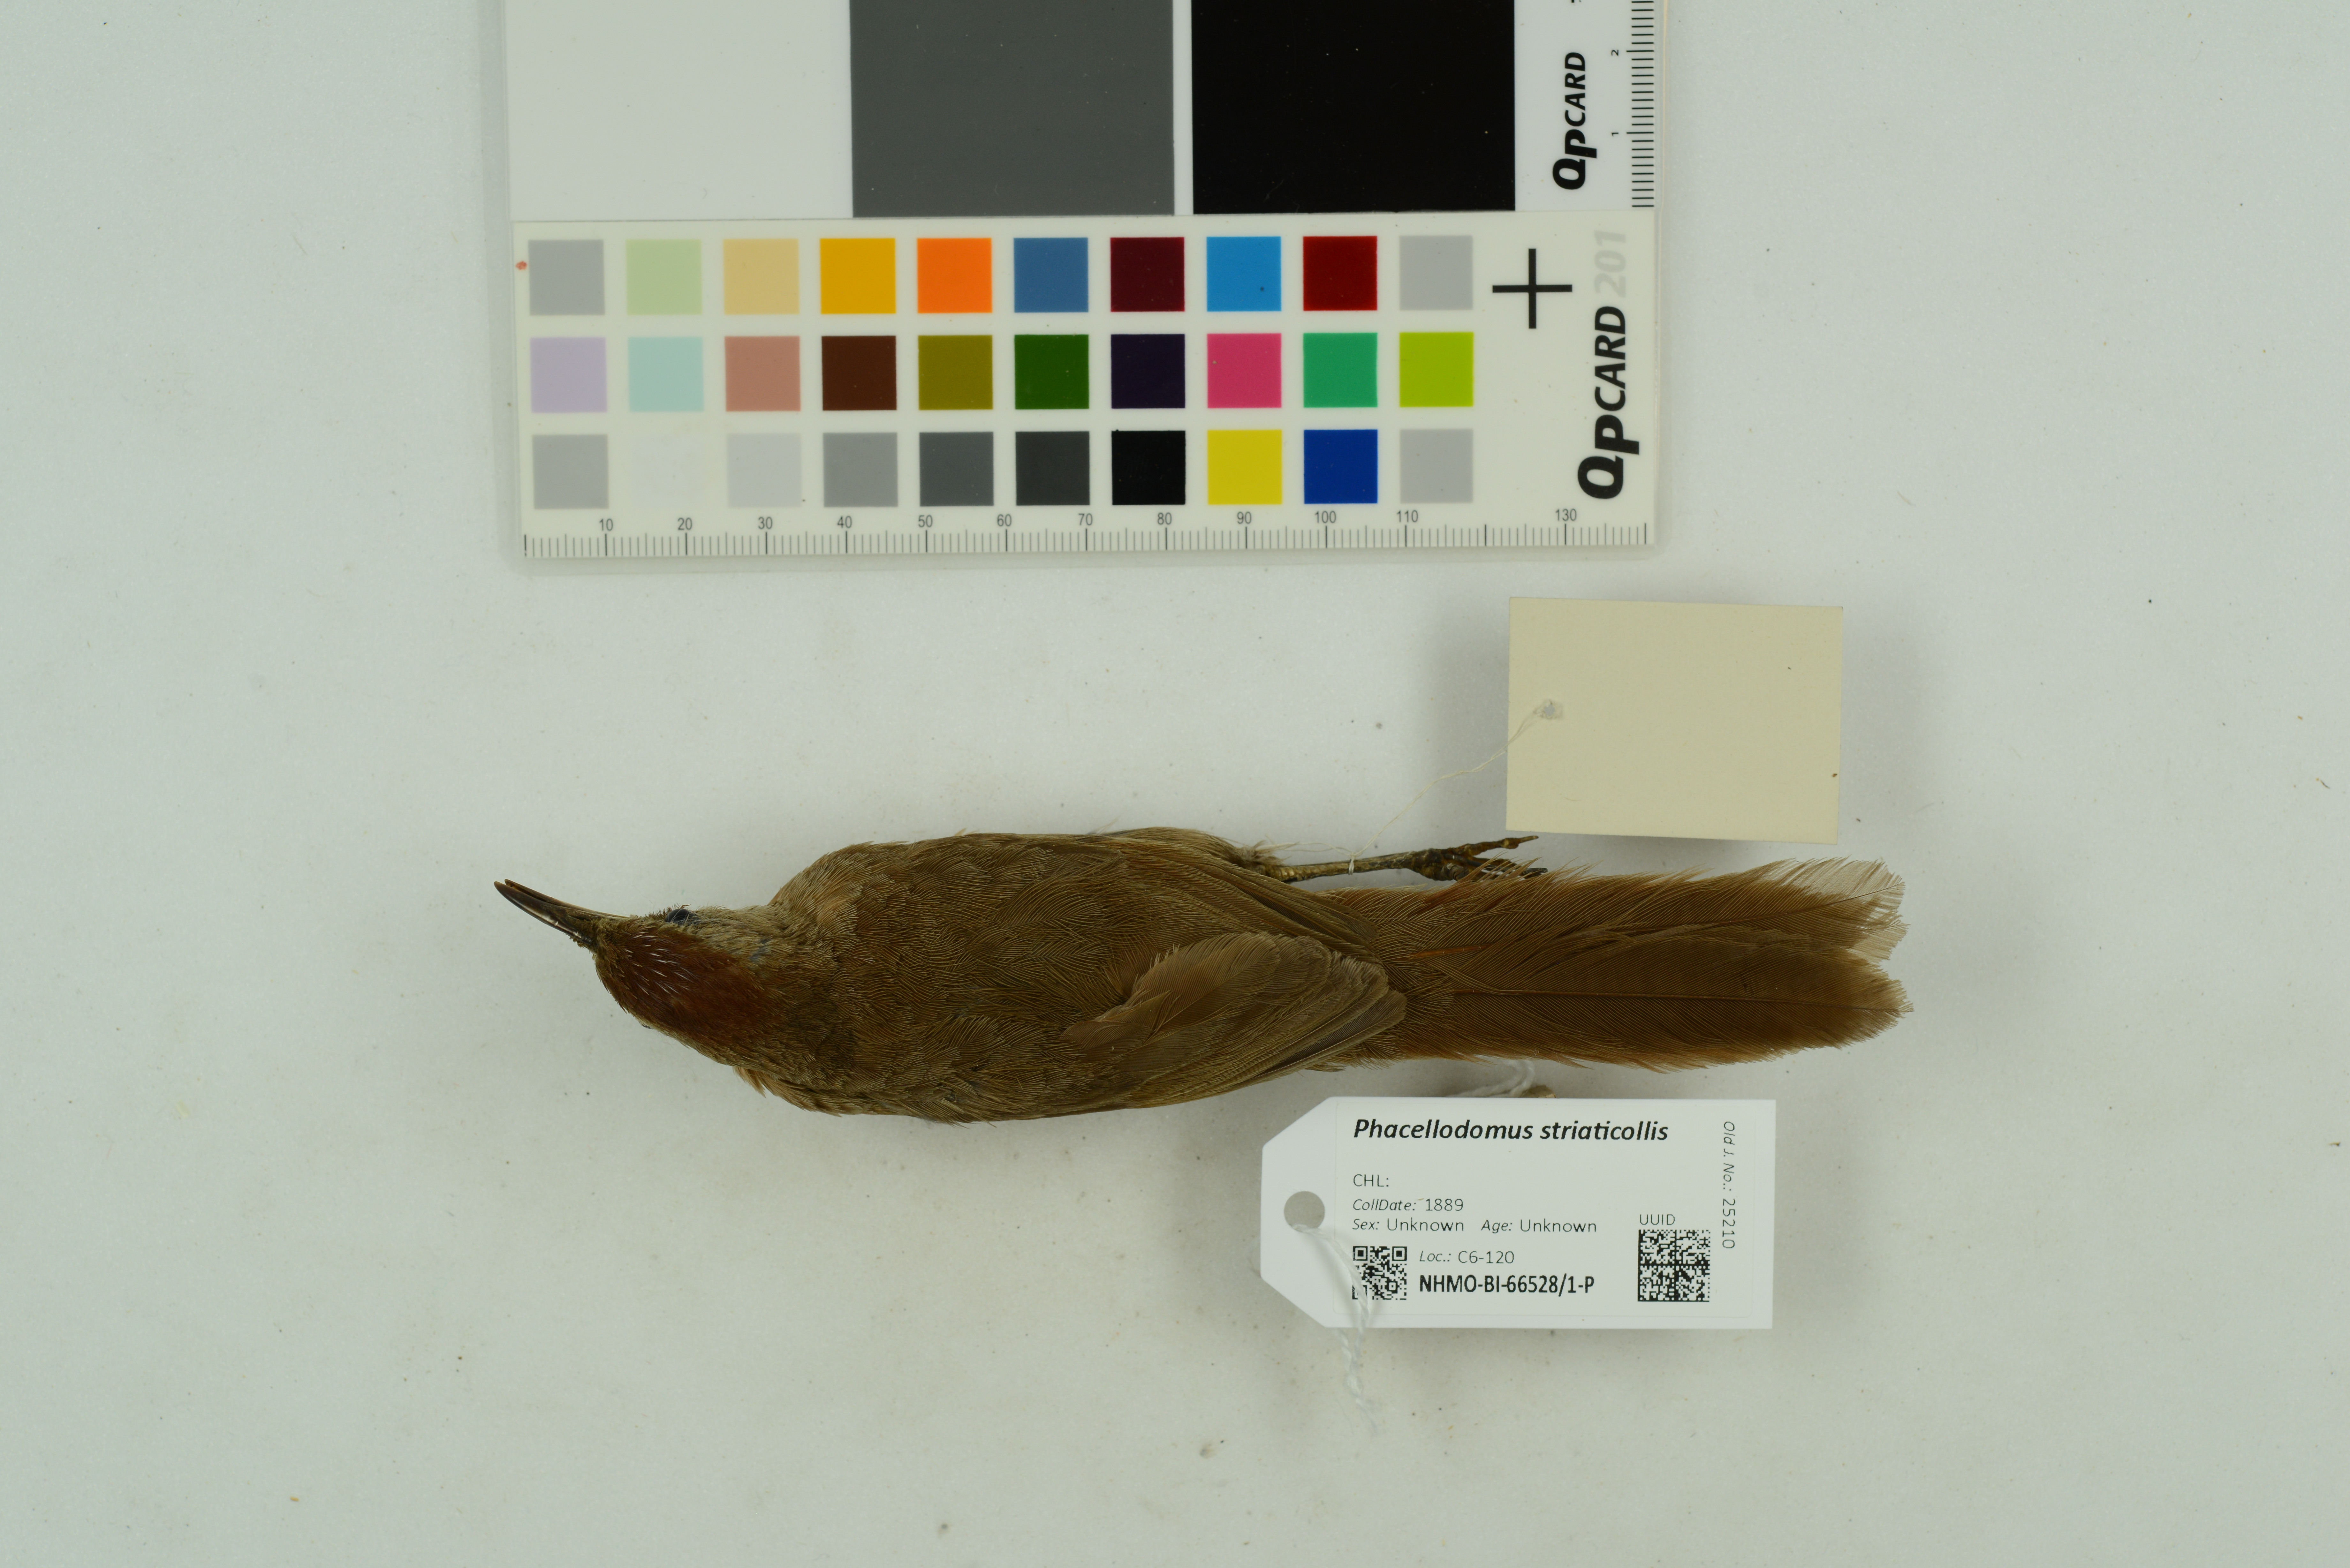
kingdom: Animalia
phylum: Chordata
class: Aves
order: Passeriformes
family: Furnariidae
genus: Phacellodomus
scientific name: Phacellodomus striaticollis
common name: Freckle-breasted thornbird
